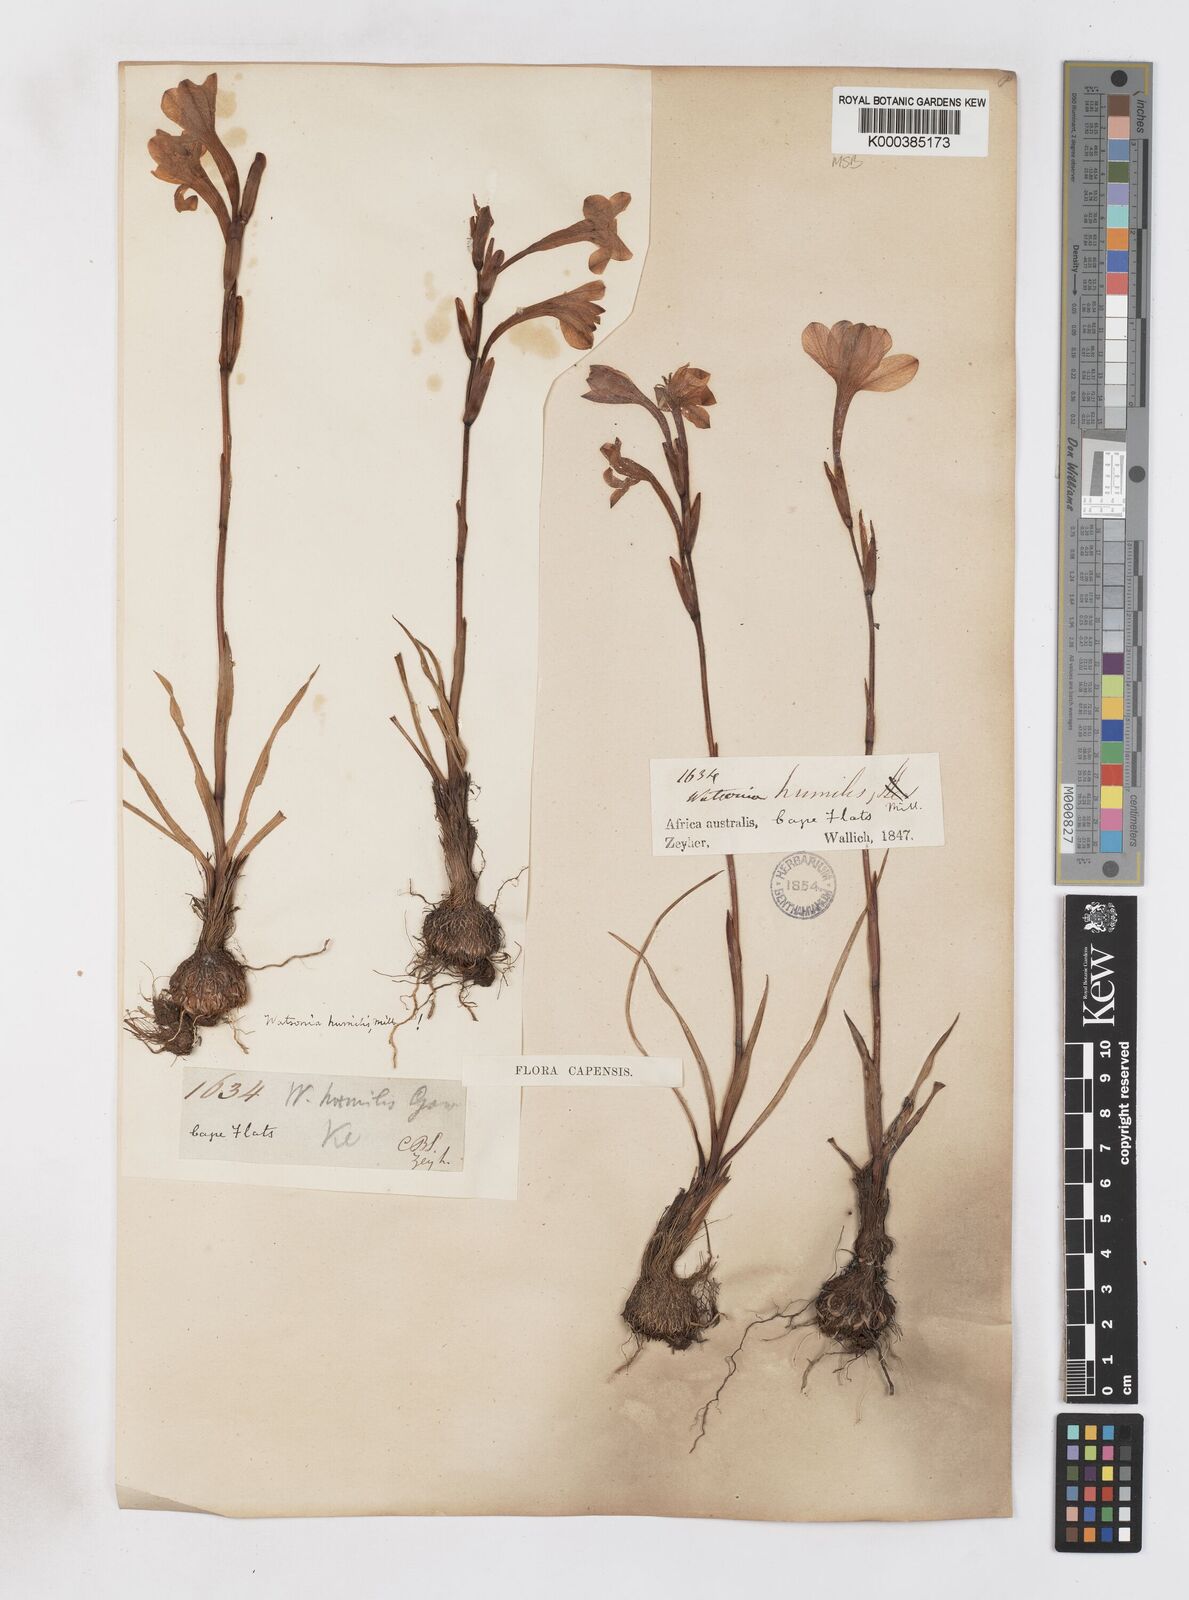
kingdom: Plantae
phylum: Tracheophyta
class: Liliopsida
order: Asparagales
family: Iridaceae
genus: Watsonia
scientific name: Watsonia humilis
